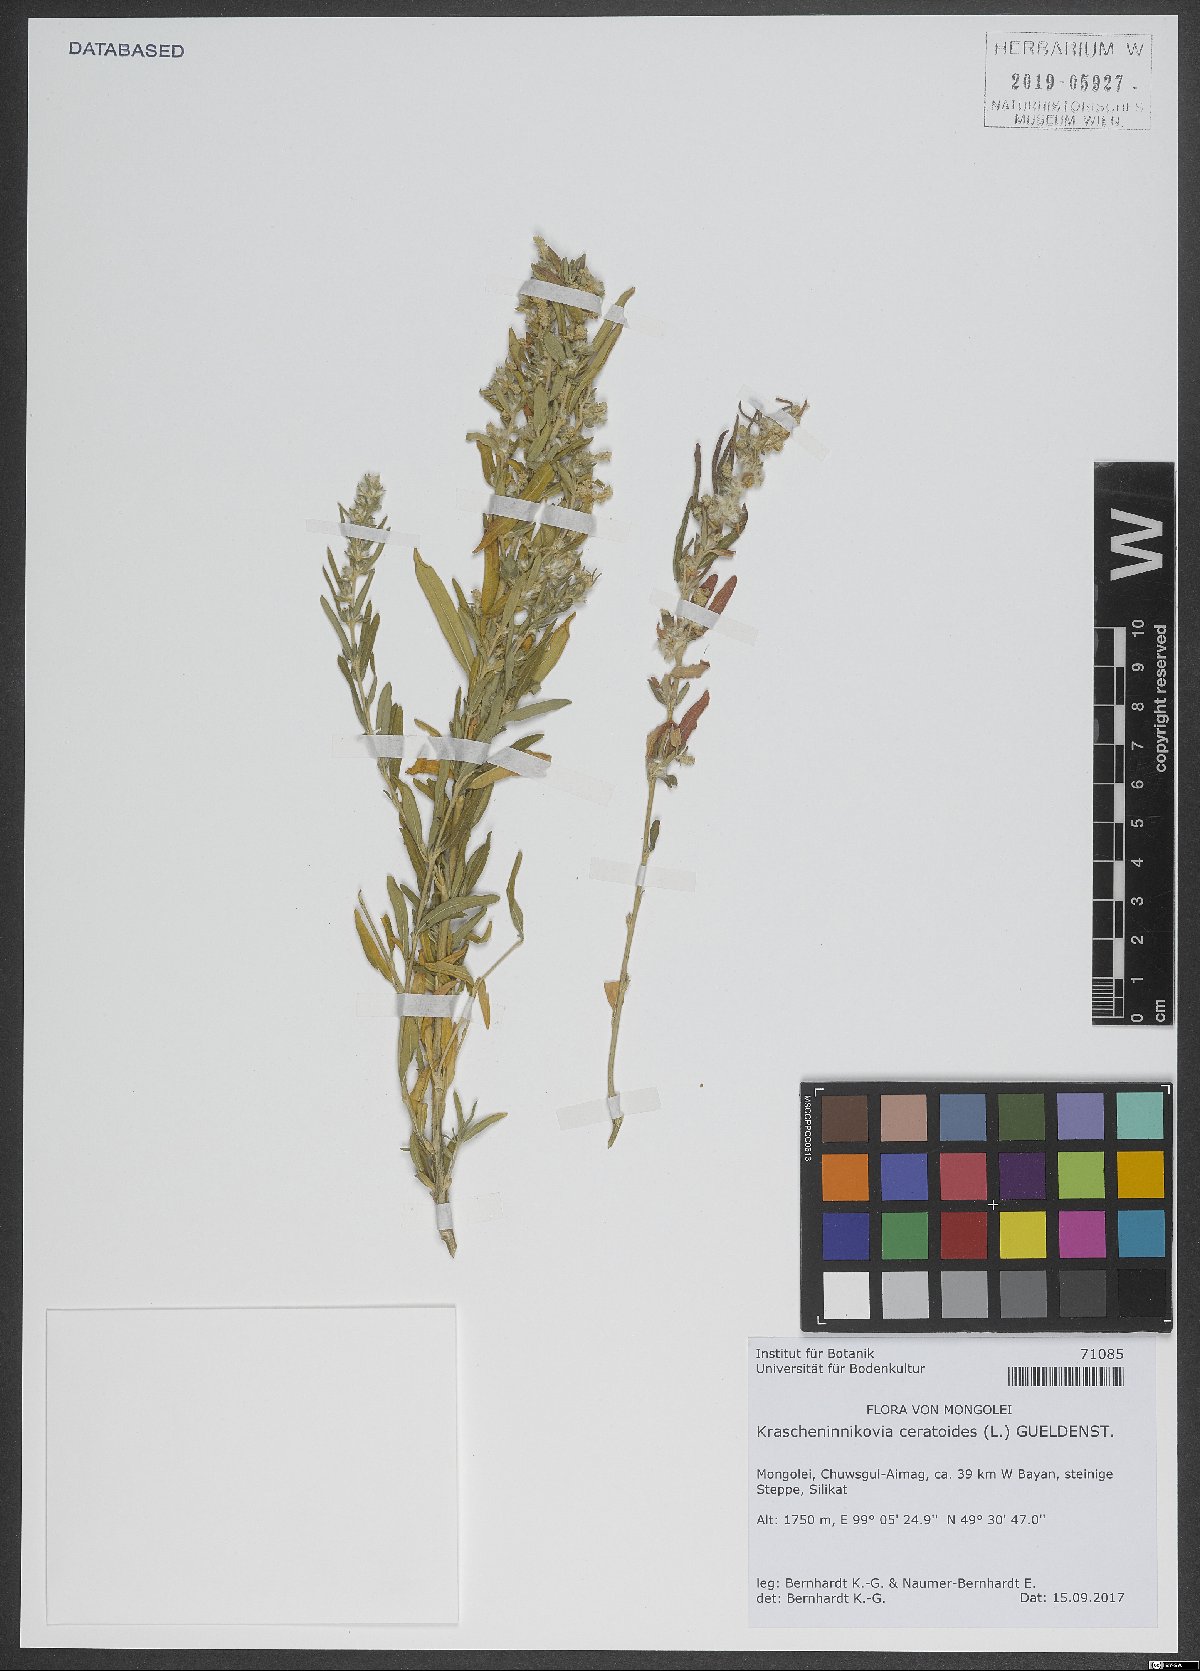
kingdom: Plantae
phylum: Tracheophyta
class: Magnoliopsida
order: Caryophyllales
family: Amaranthaceae
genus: Krascheninnikovia
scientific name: Krascheninnikovia ceratoides
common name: Pamirian winterfat
